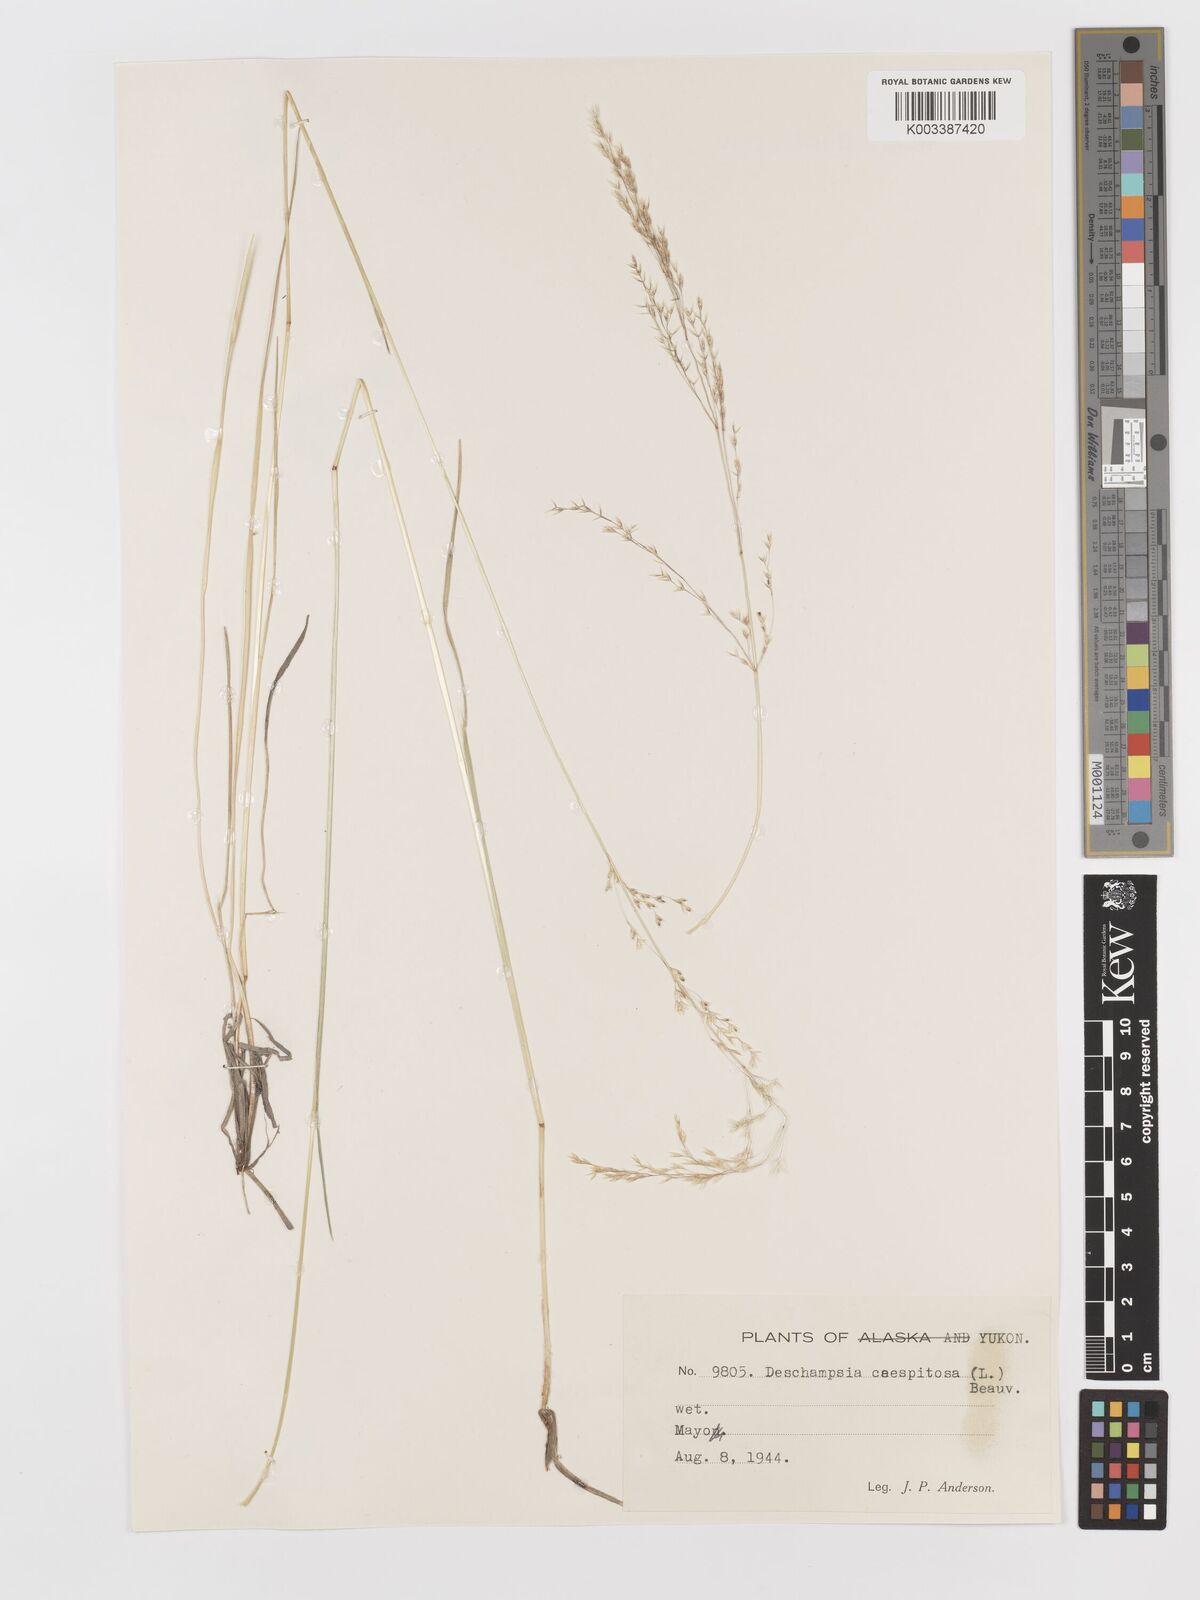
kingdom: Plantae
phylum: Tracheophyta
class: Liliopsida
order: Poales
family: Poaceae
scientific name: Poaceae
